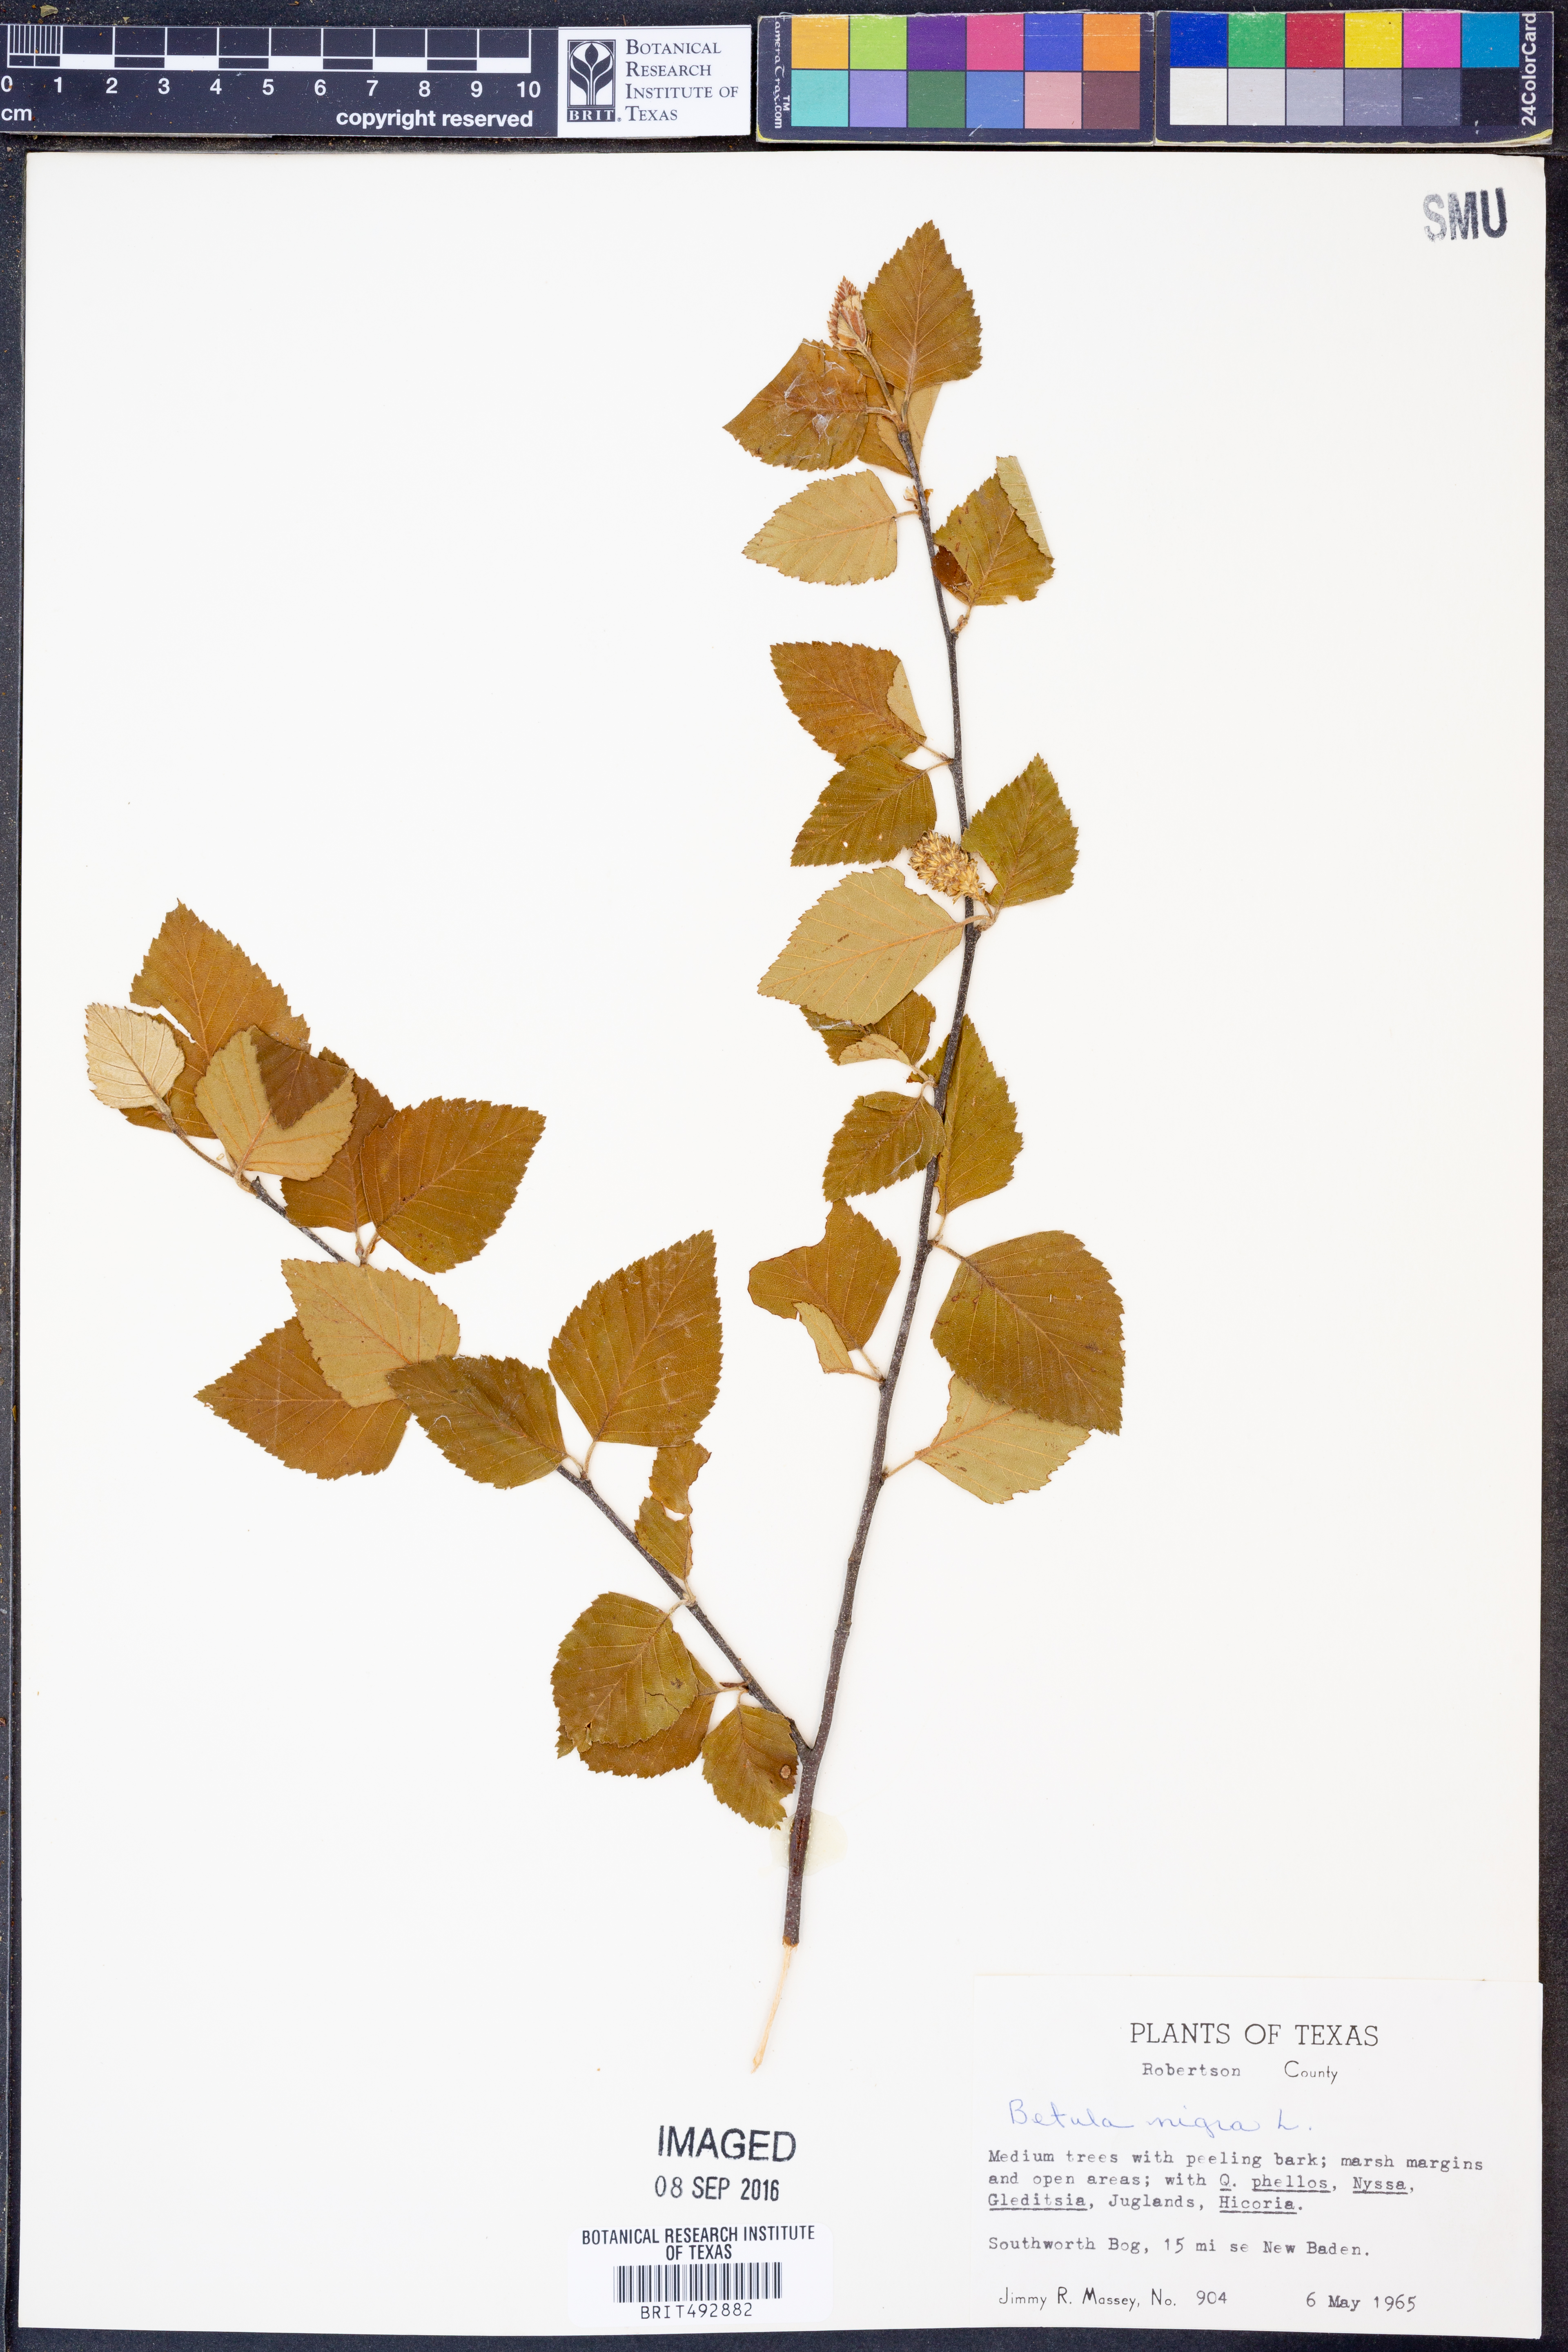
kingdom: Plantae
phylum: Tracheophyta
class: Magnoliopsida
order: Fagales
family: Betulaceae
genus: Betula
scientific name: Betula nigra
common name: Black birch
